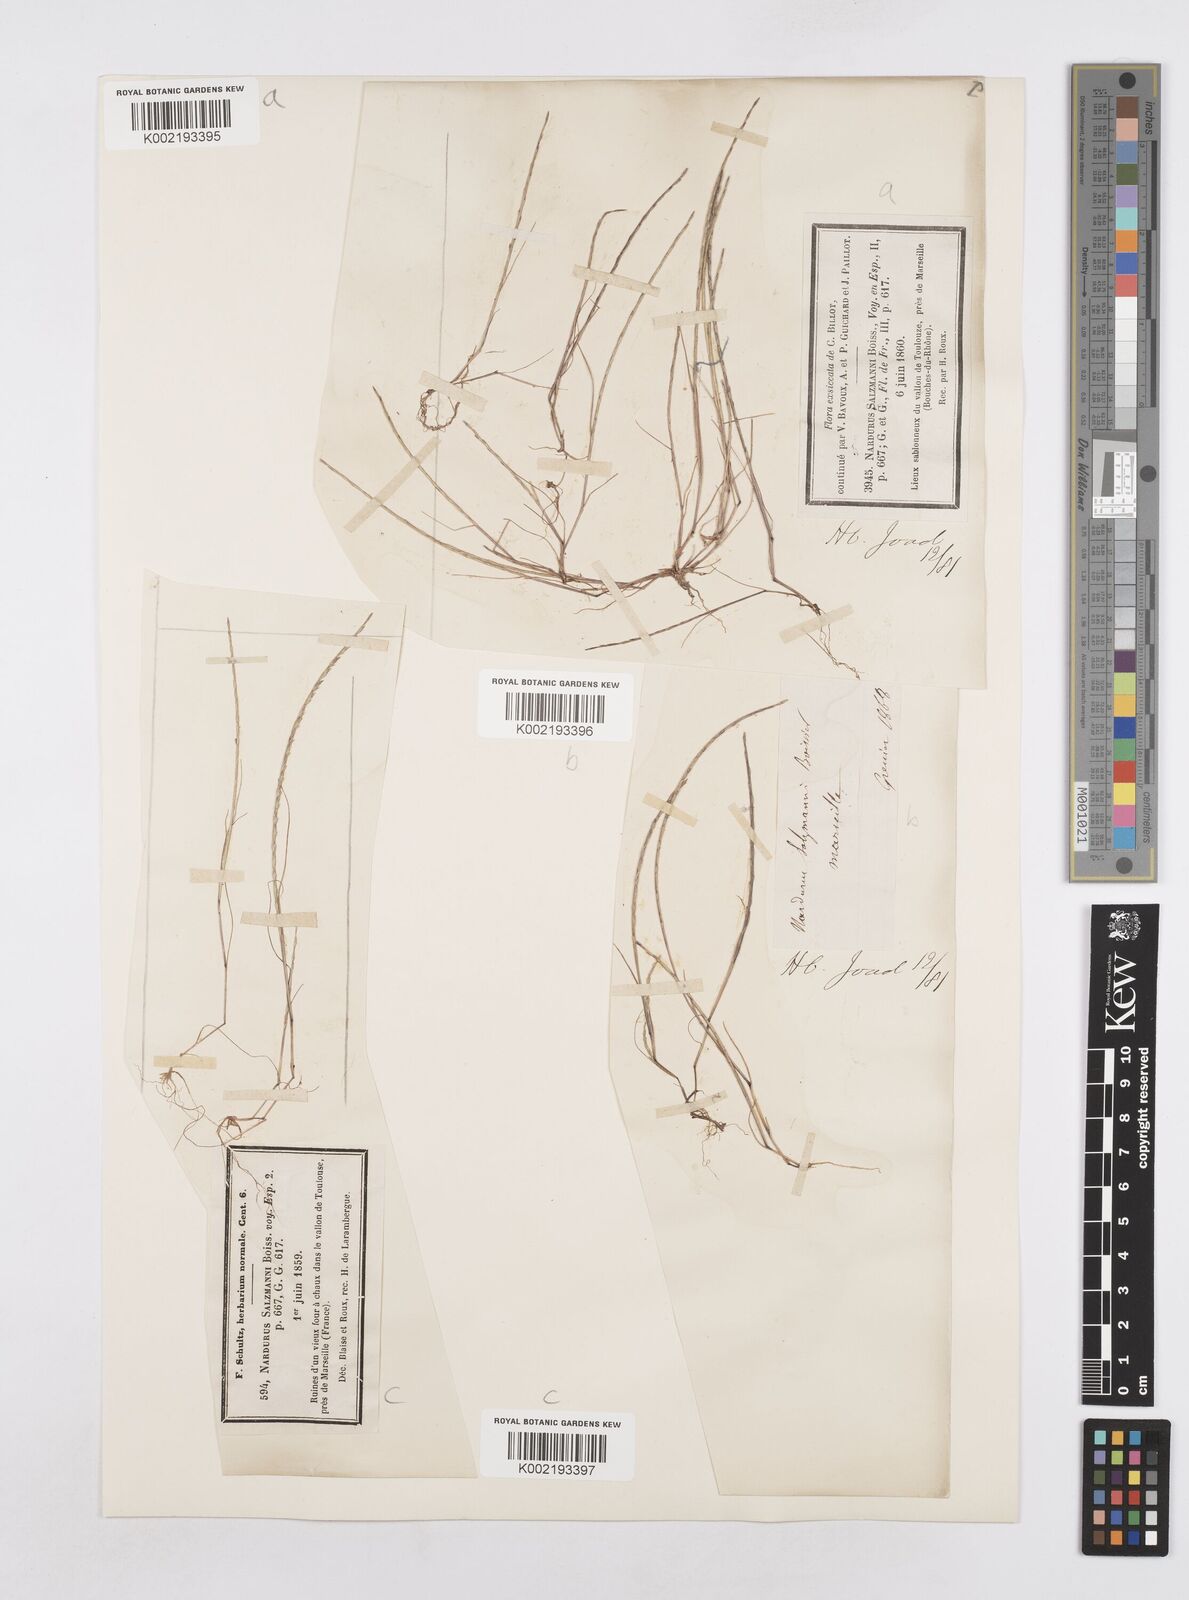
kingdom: Plantae
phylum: Tracheophyta
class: Liliopsida
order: Poales
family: Poaceae
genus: Festuca
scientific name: Festuca salzmannii
